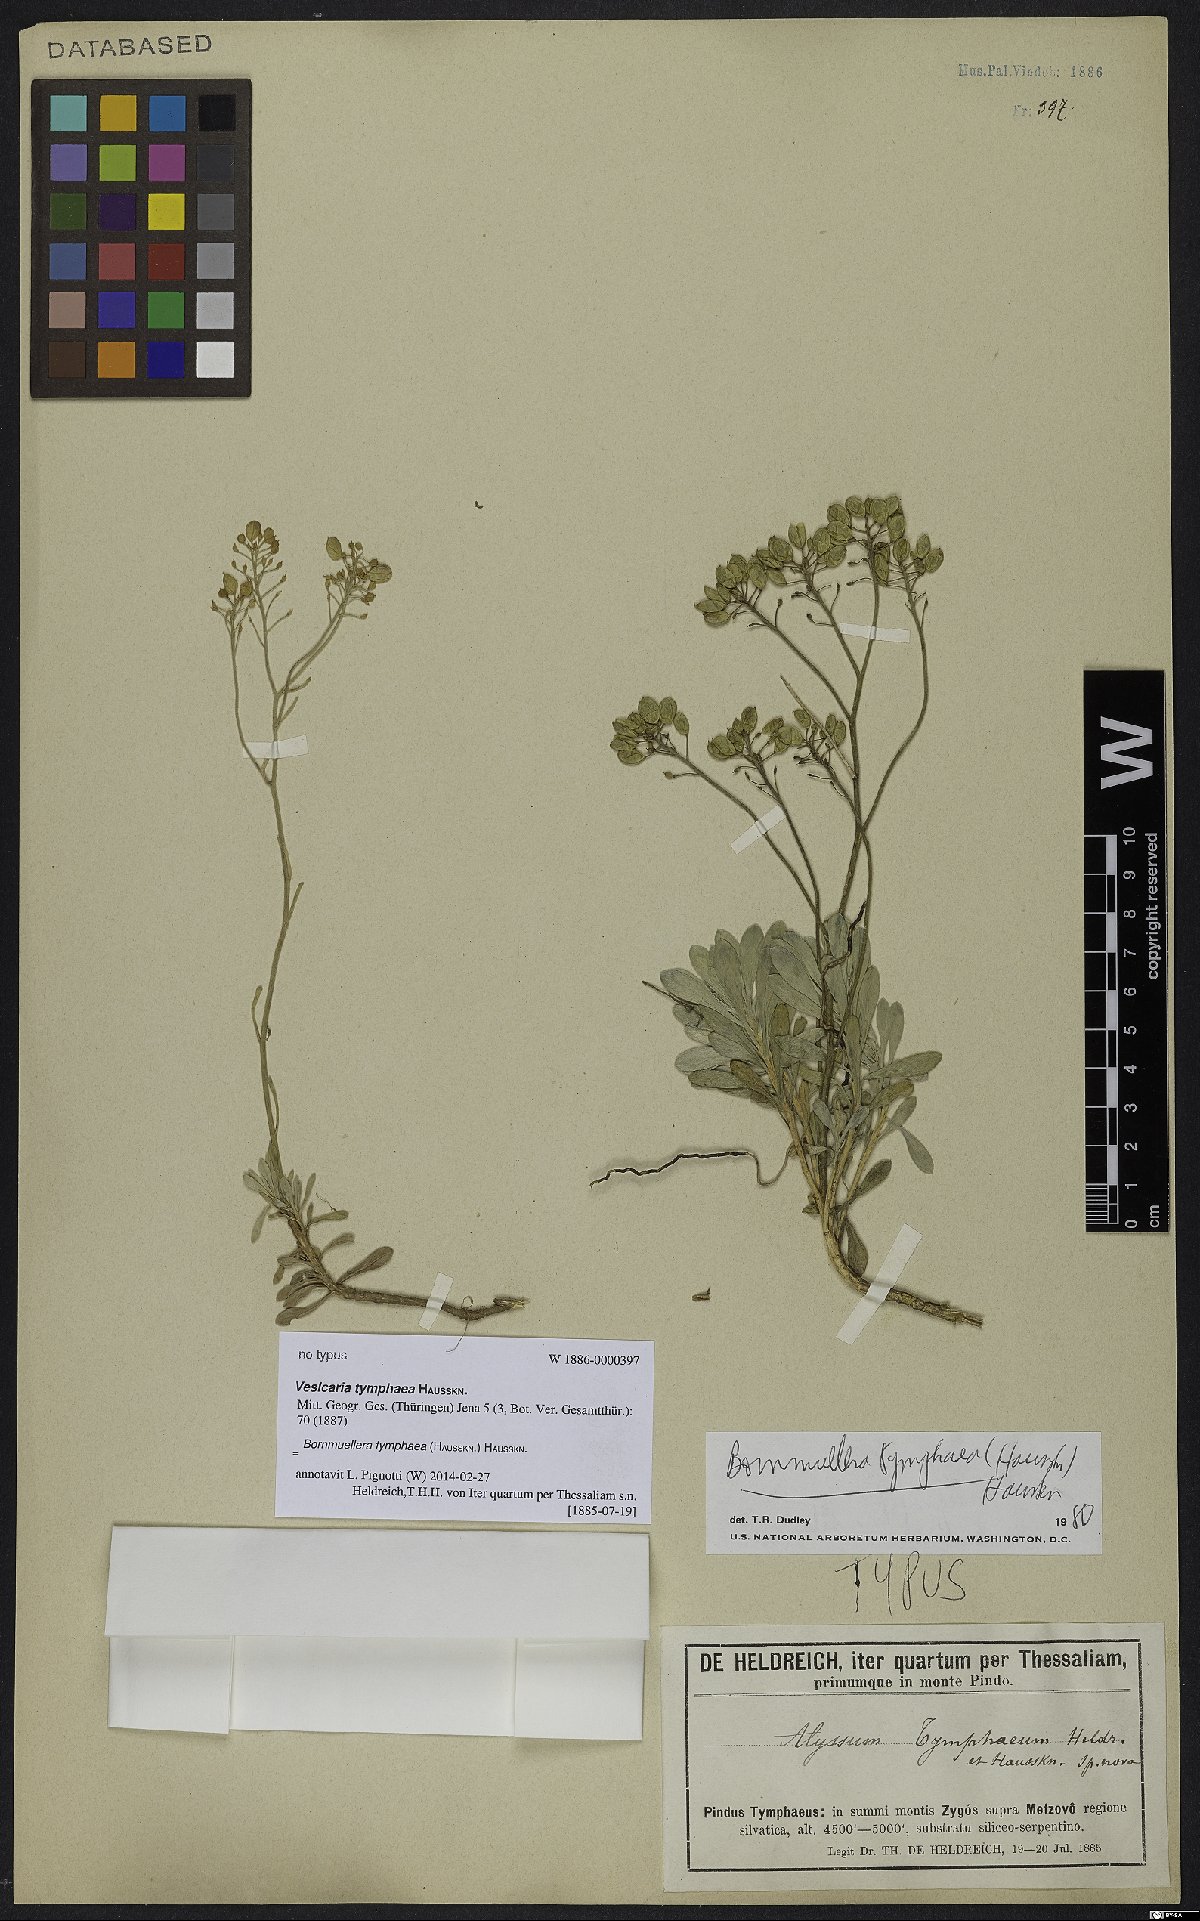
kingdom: Plantae
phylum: Tracheophyta
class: Magnoliopsida
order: Brassicales
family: Brassicaceae
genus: Bornmuellera
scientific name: Bornmuellera tymphaea
